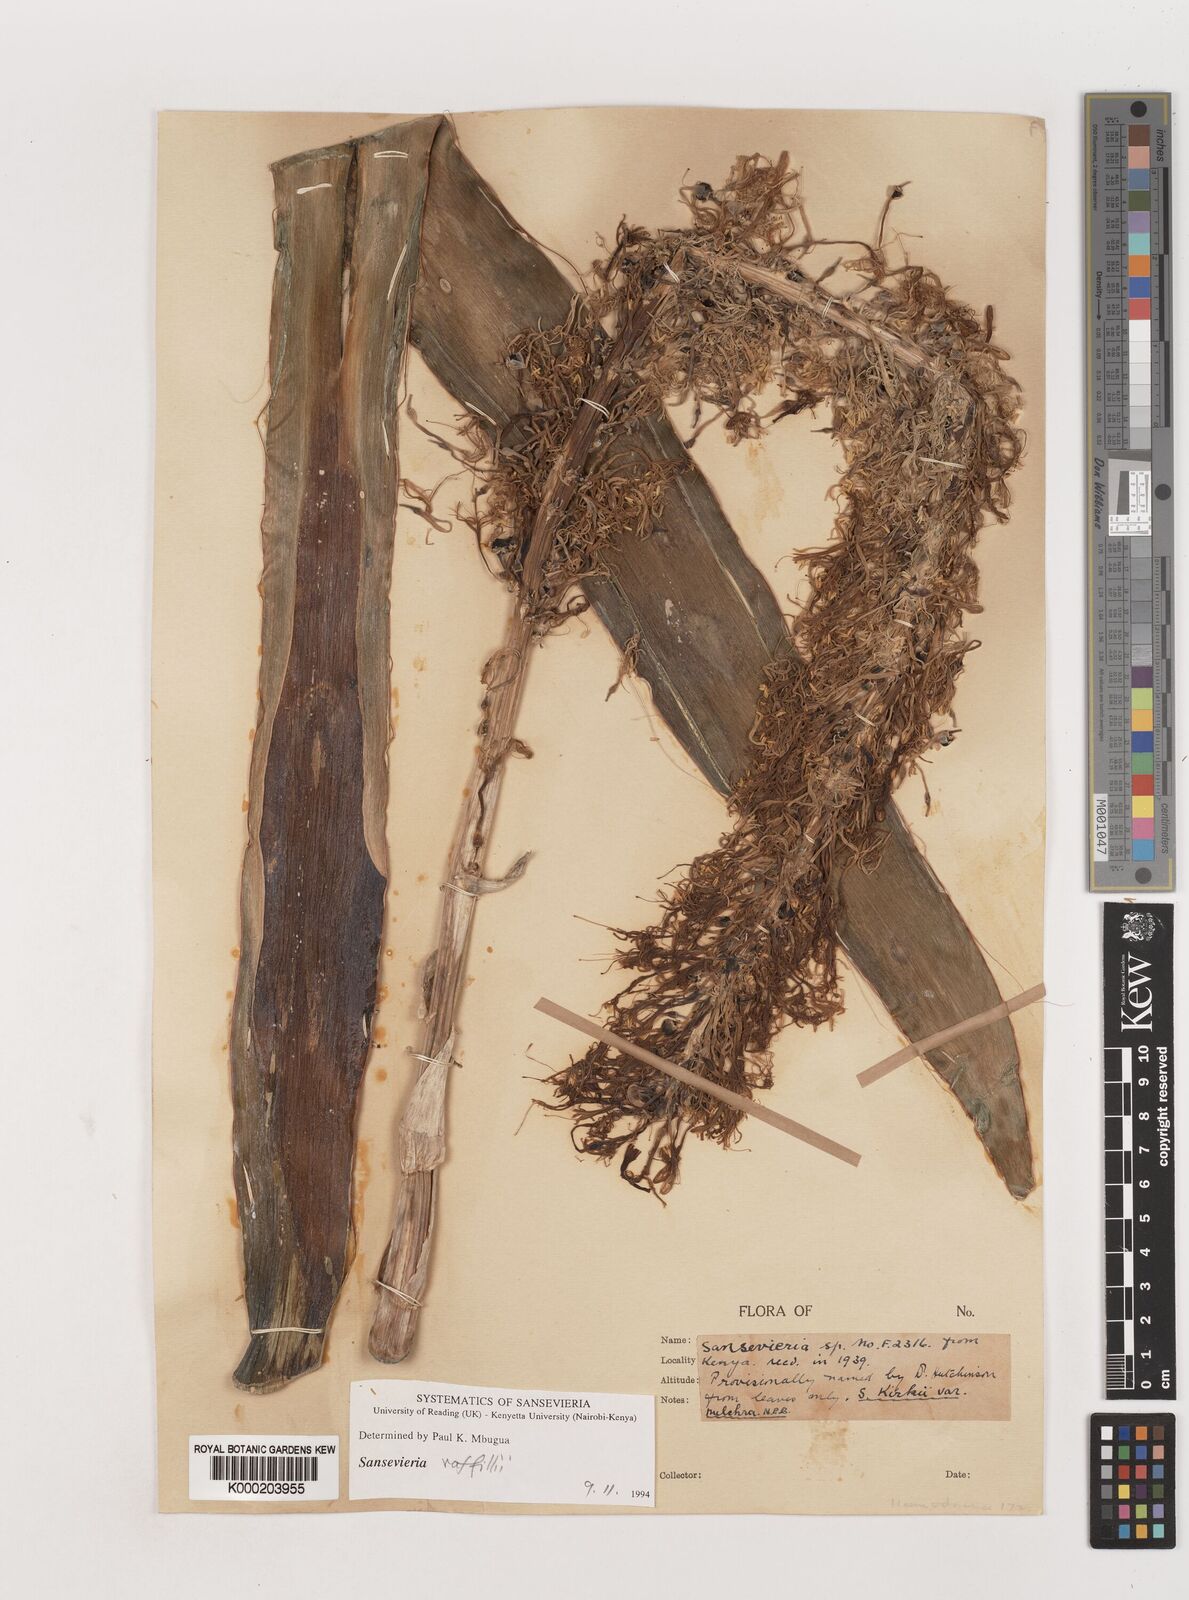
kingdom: Plantae
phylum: Tracheophyta
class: Liliopsida
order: Asparagales
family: Asparagaceae
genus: Dracaena
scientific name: Dracaena pethera
